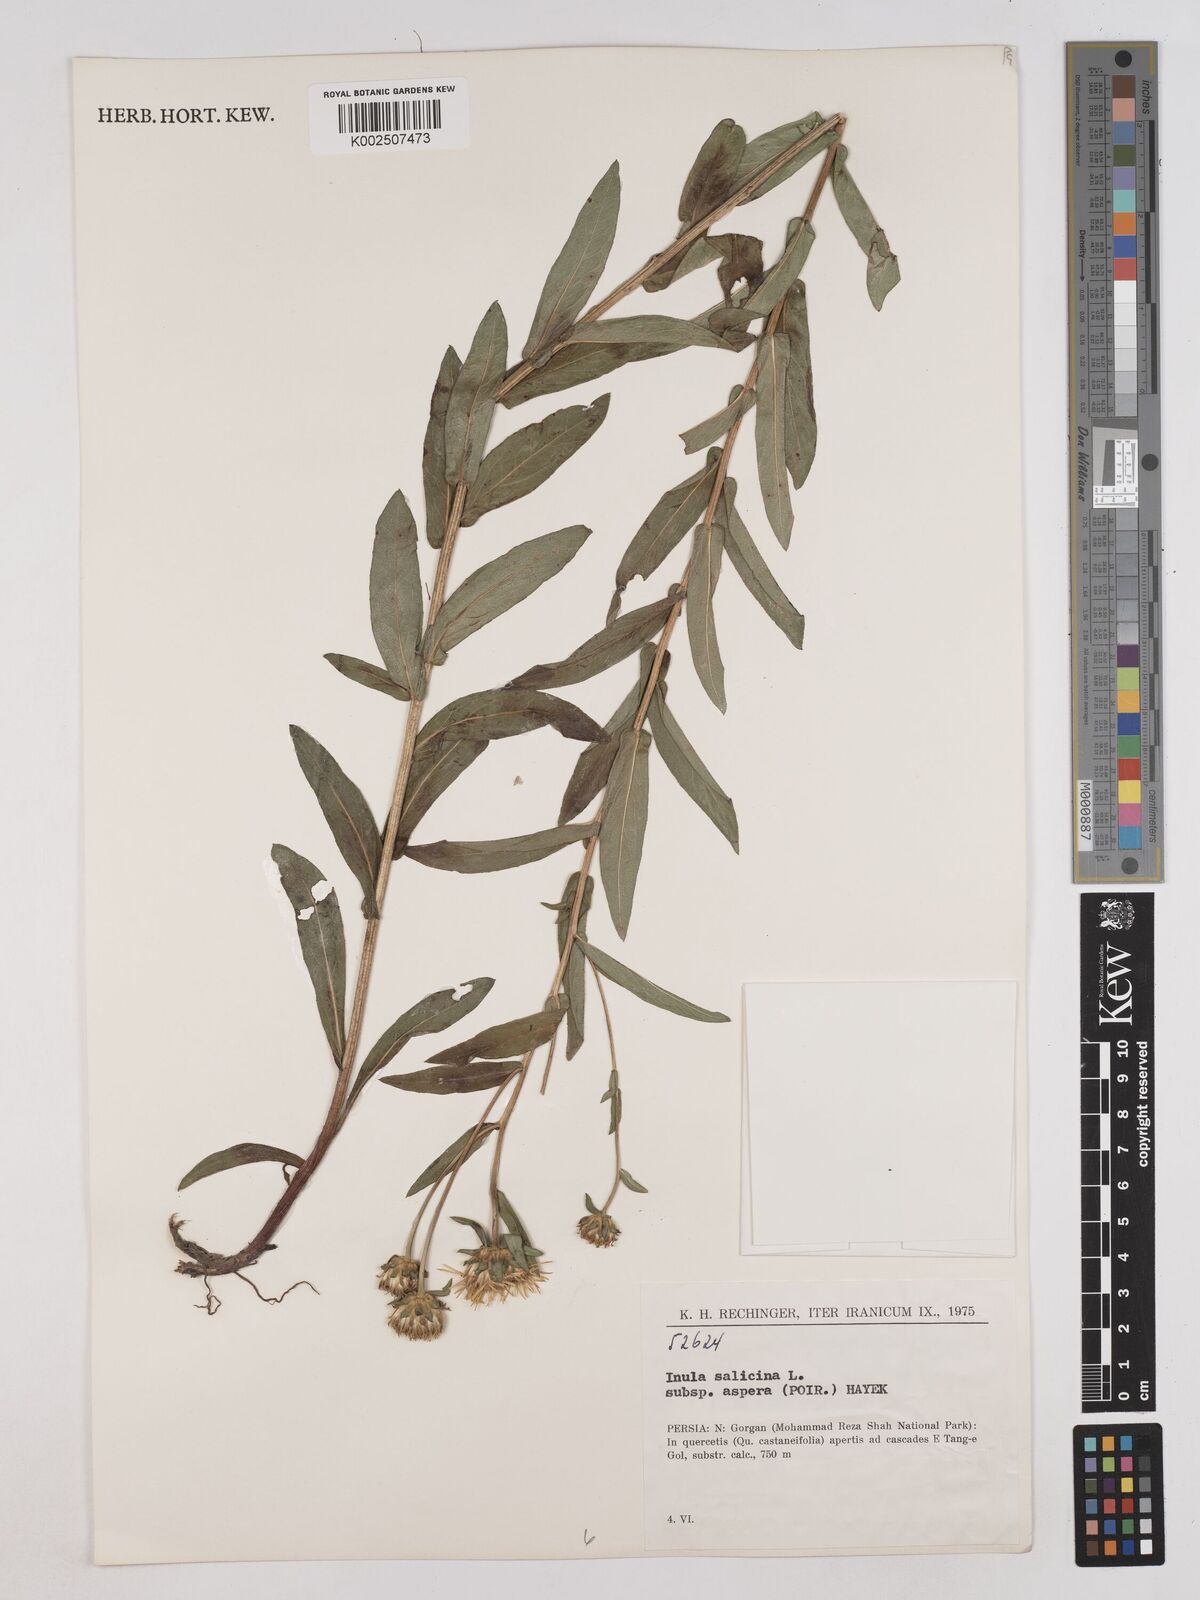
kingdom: Plantae
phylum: Tracheophyta
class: Magnoliopsida
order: Asterales
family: Asteraceae
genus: Pentanema
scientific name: Pentanema salicinum
